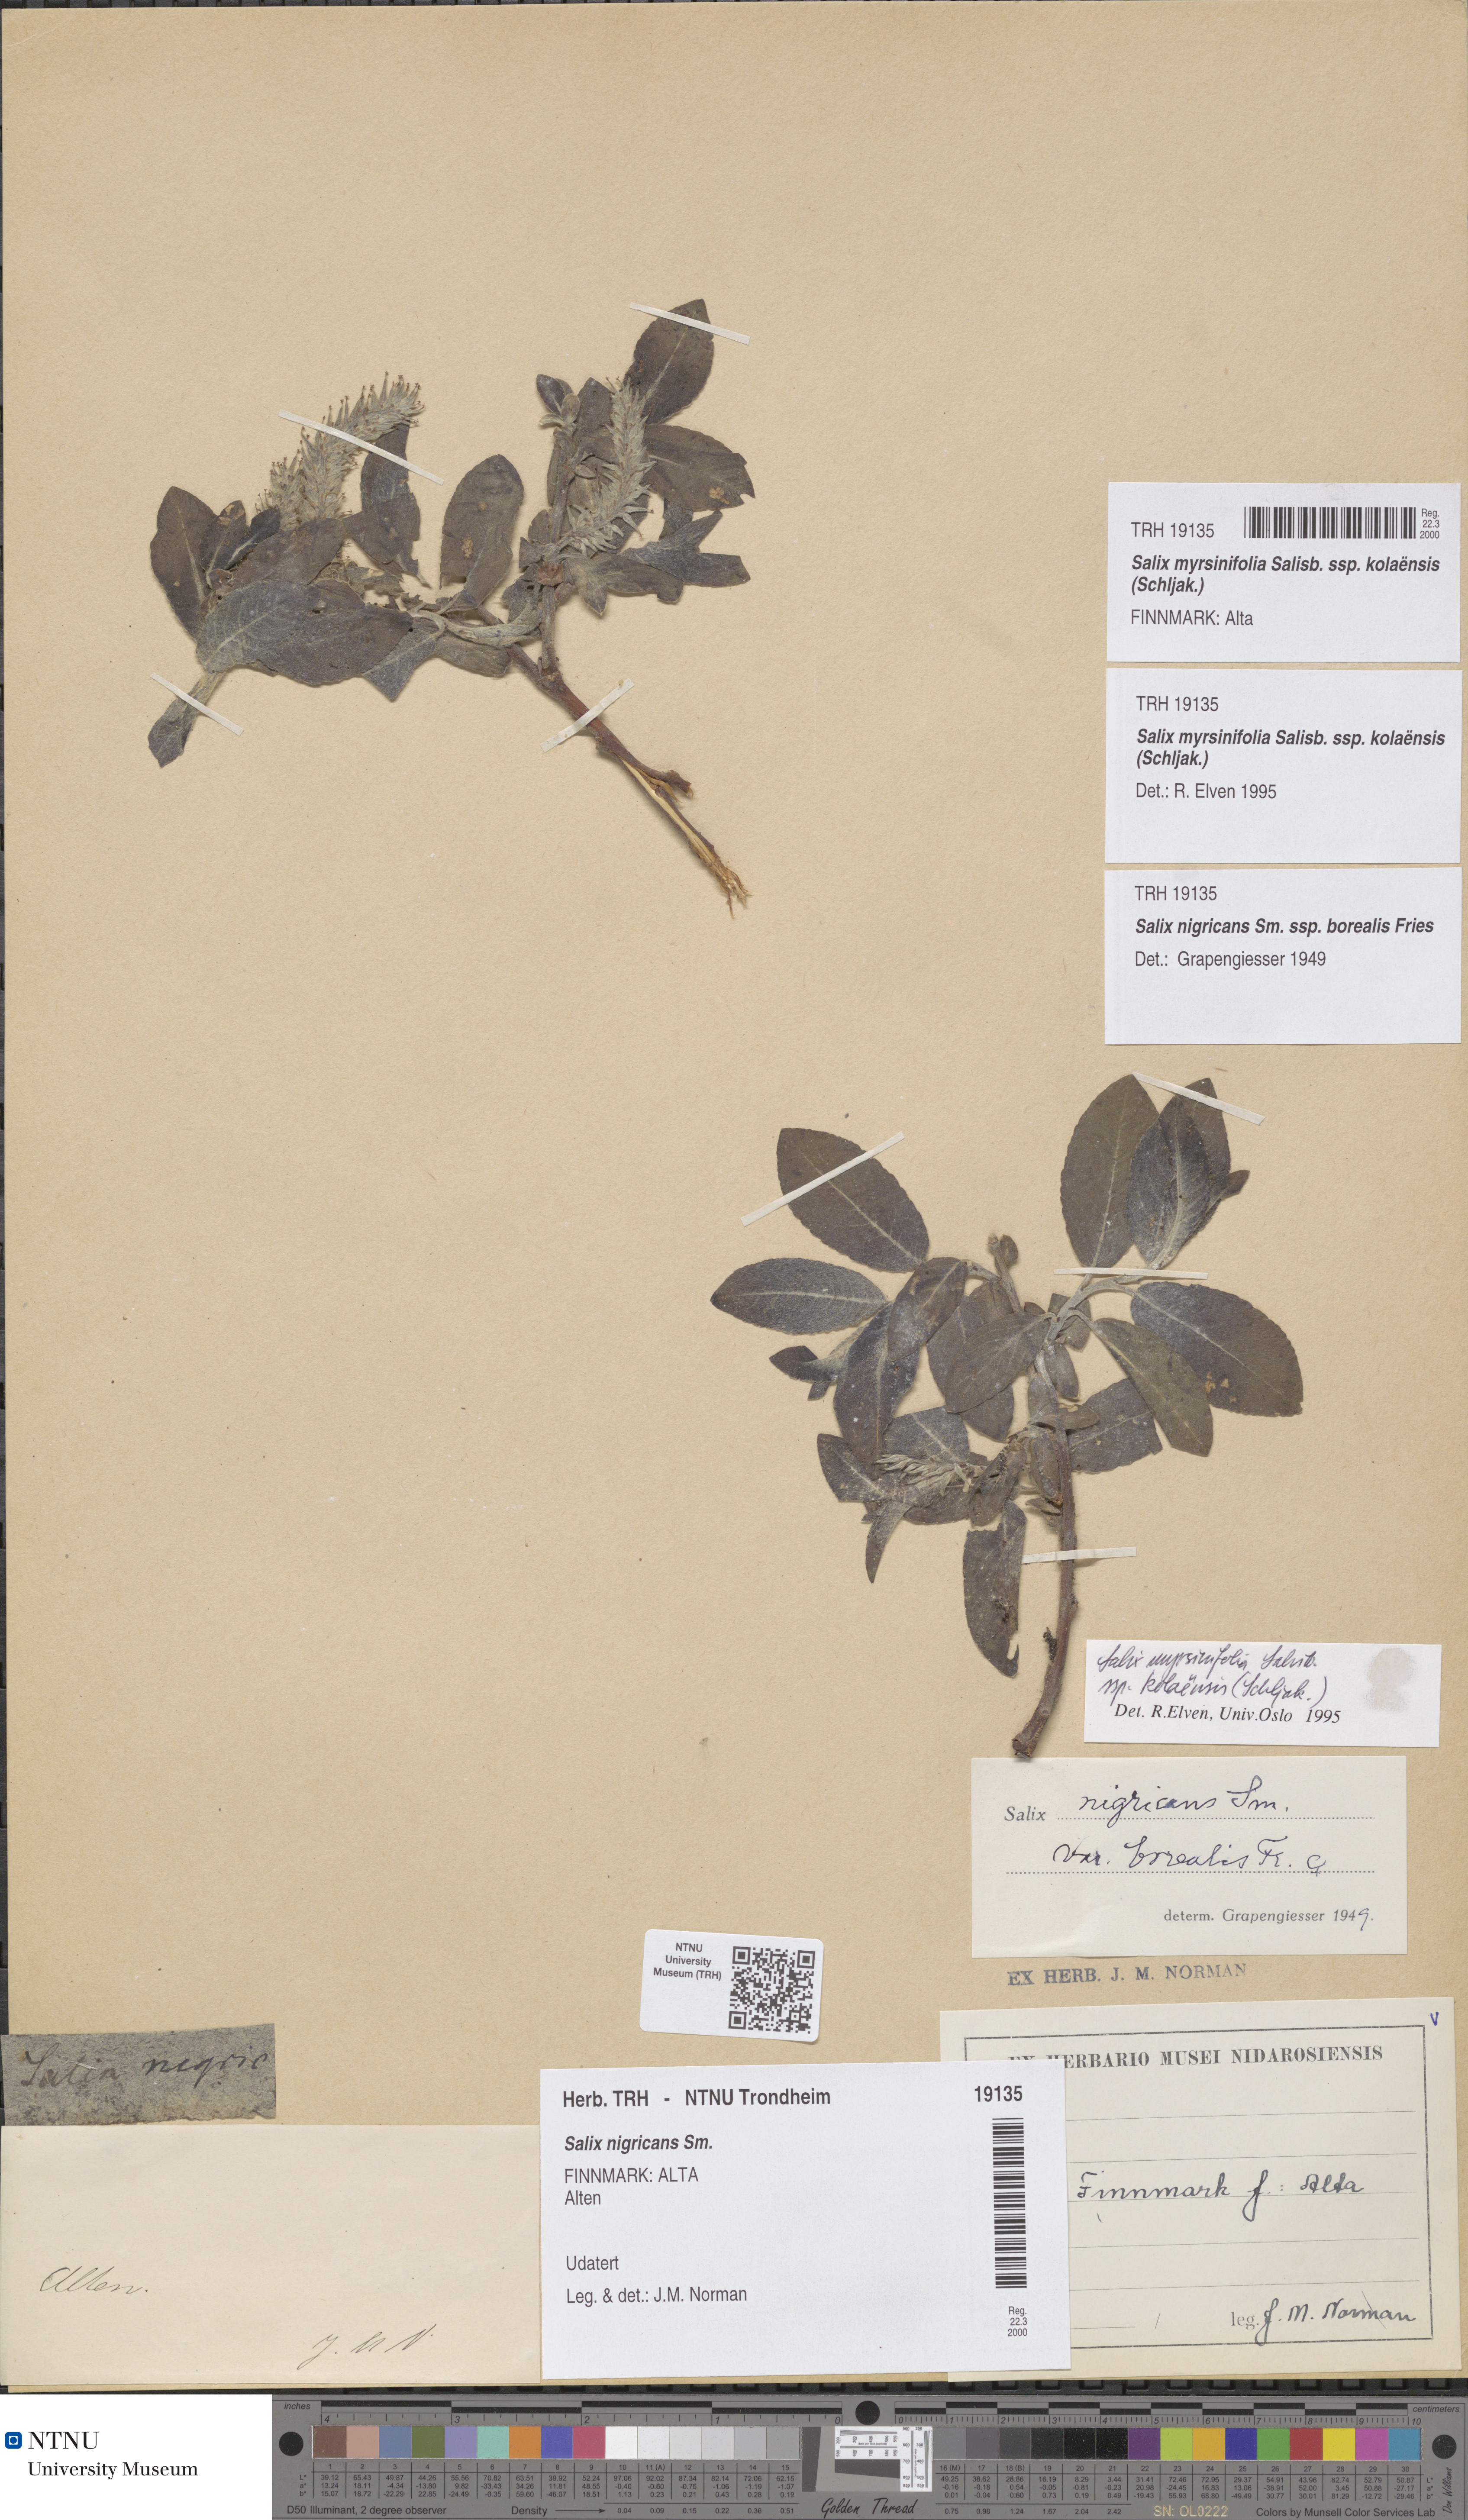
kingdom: Plantae
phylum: Tracheophyta
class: Magnoliopsida
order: Malpighiales
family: Salicaceae
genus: Salix
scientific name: Salix myrsinifolia
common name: Dark-leaved willow
